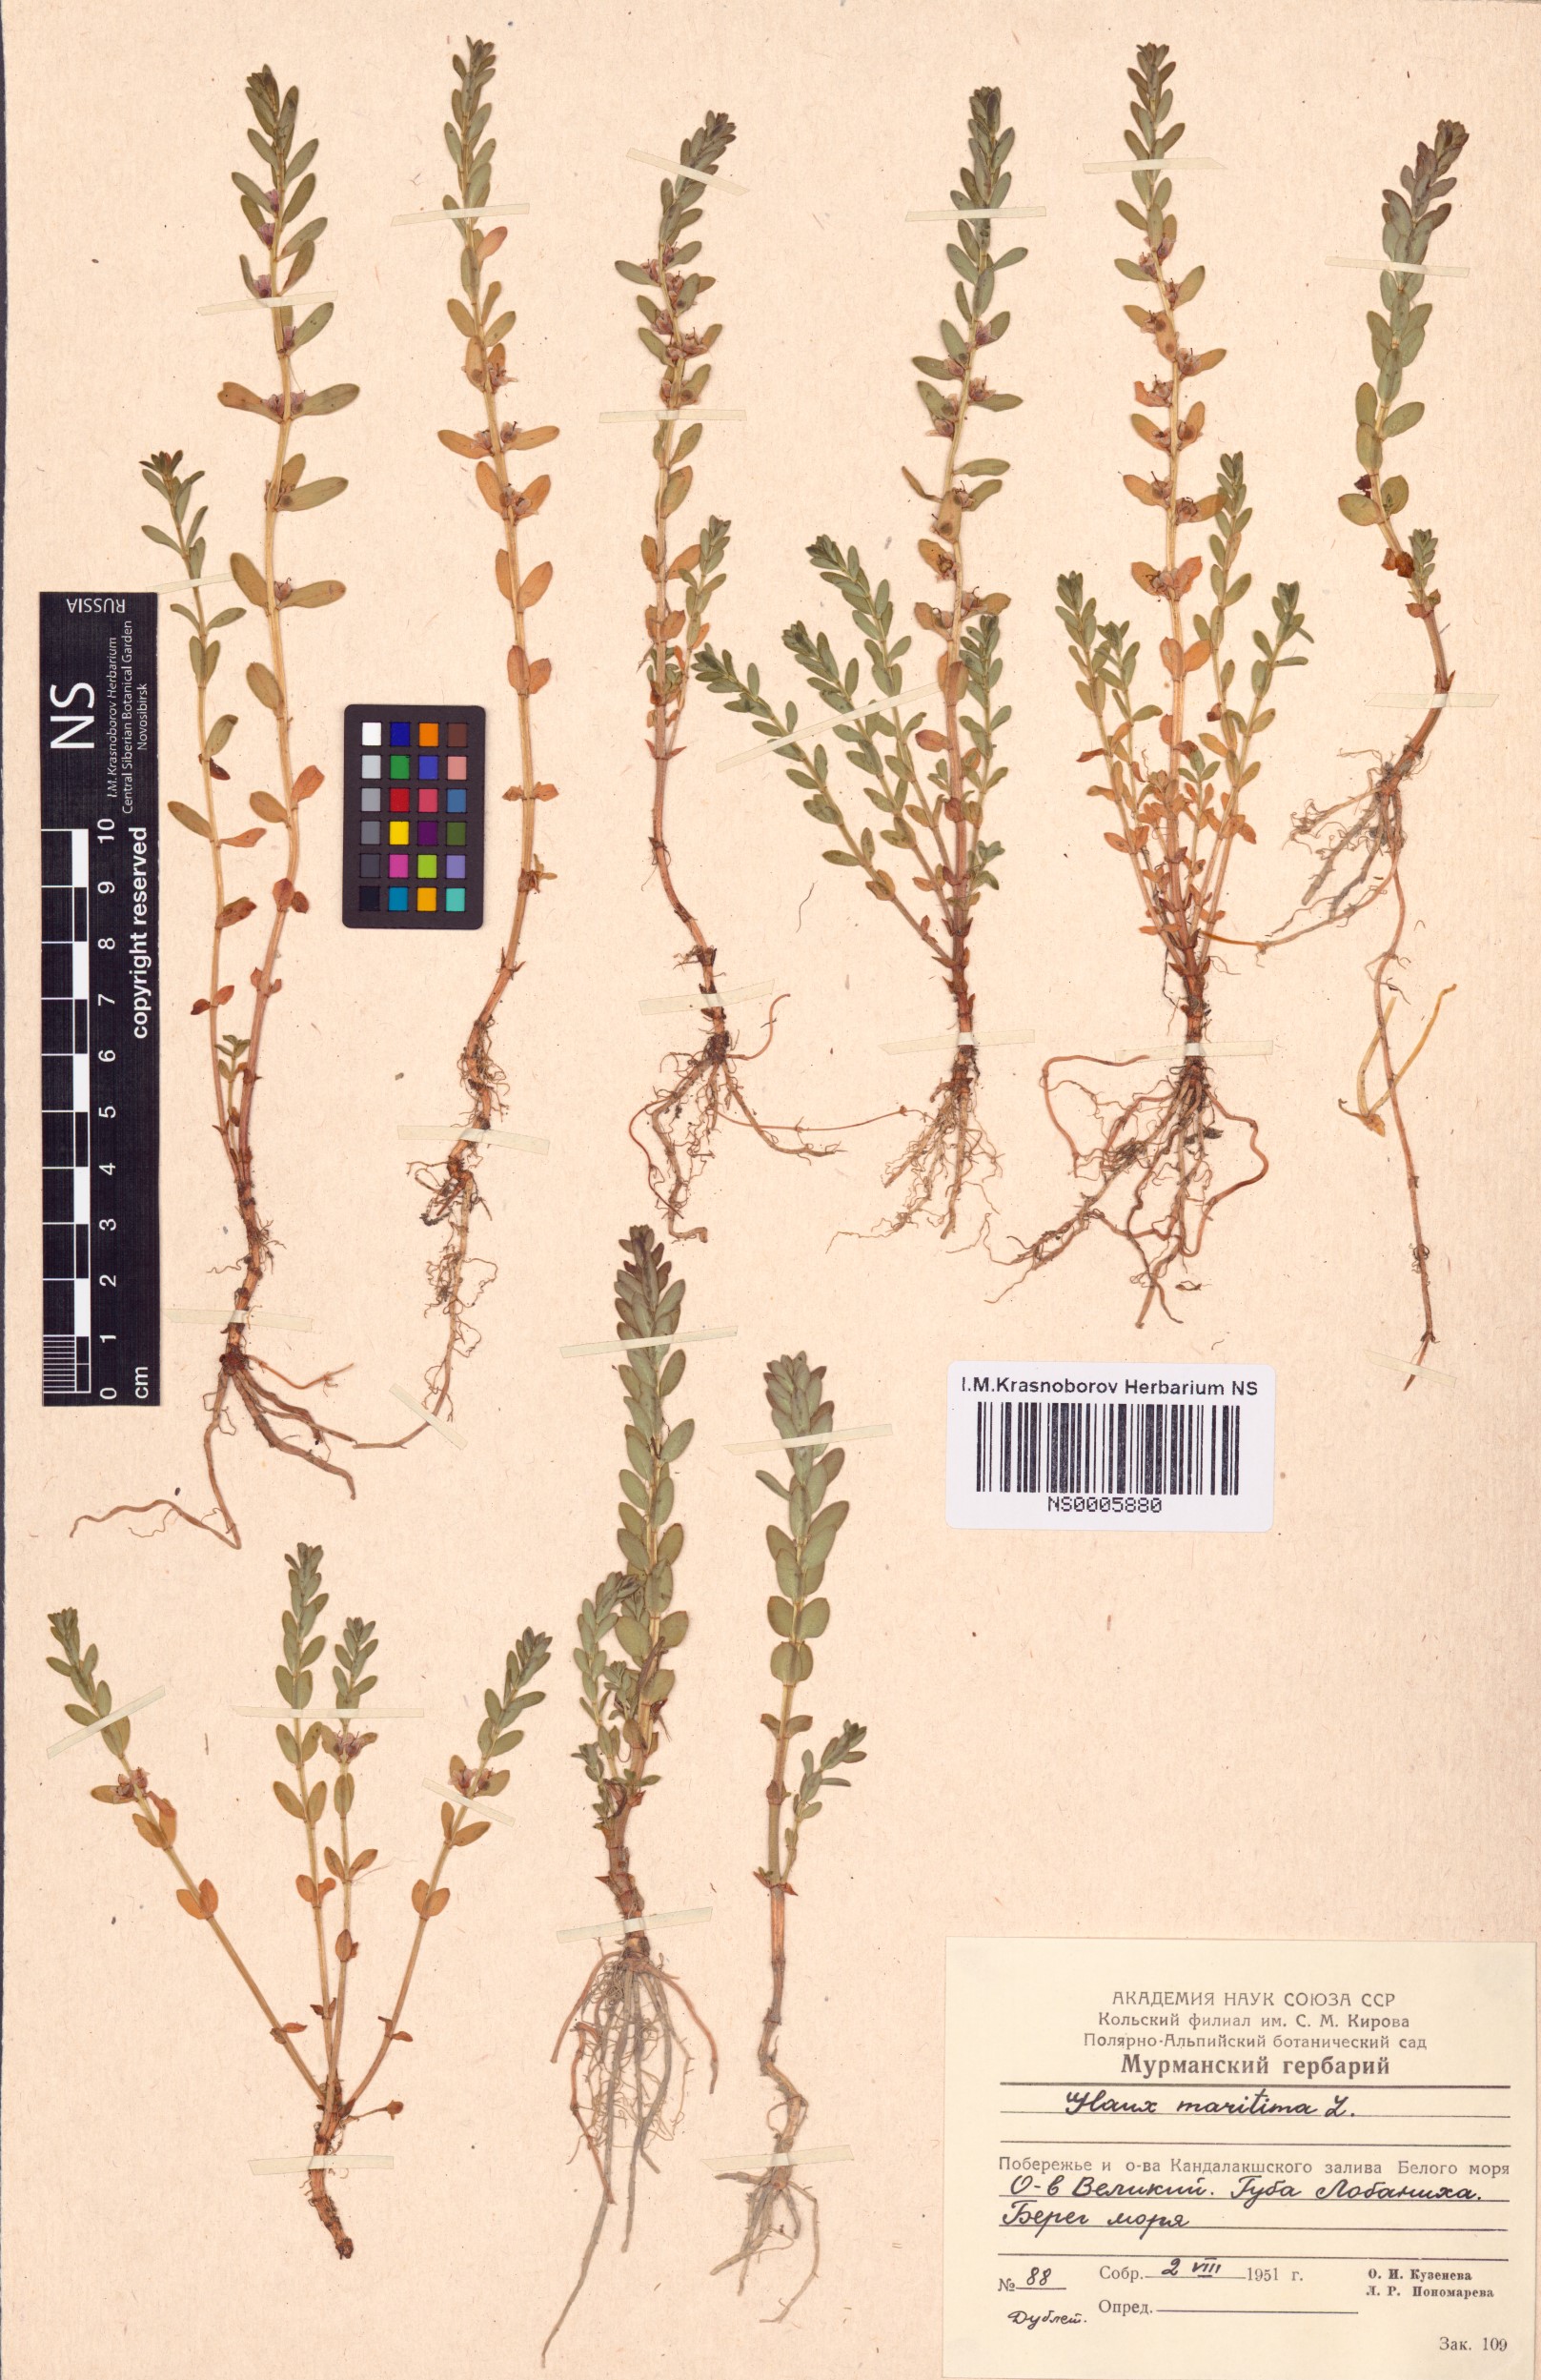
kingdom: Plantae
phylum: Tracheophyta
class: Magnoliopsida
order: Ericales
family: Primulaceae
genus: Lysimachia
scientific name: Lysimachia maritima
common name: Sea milkwort
